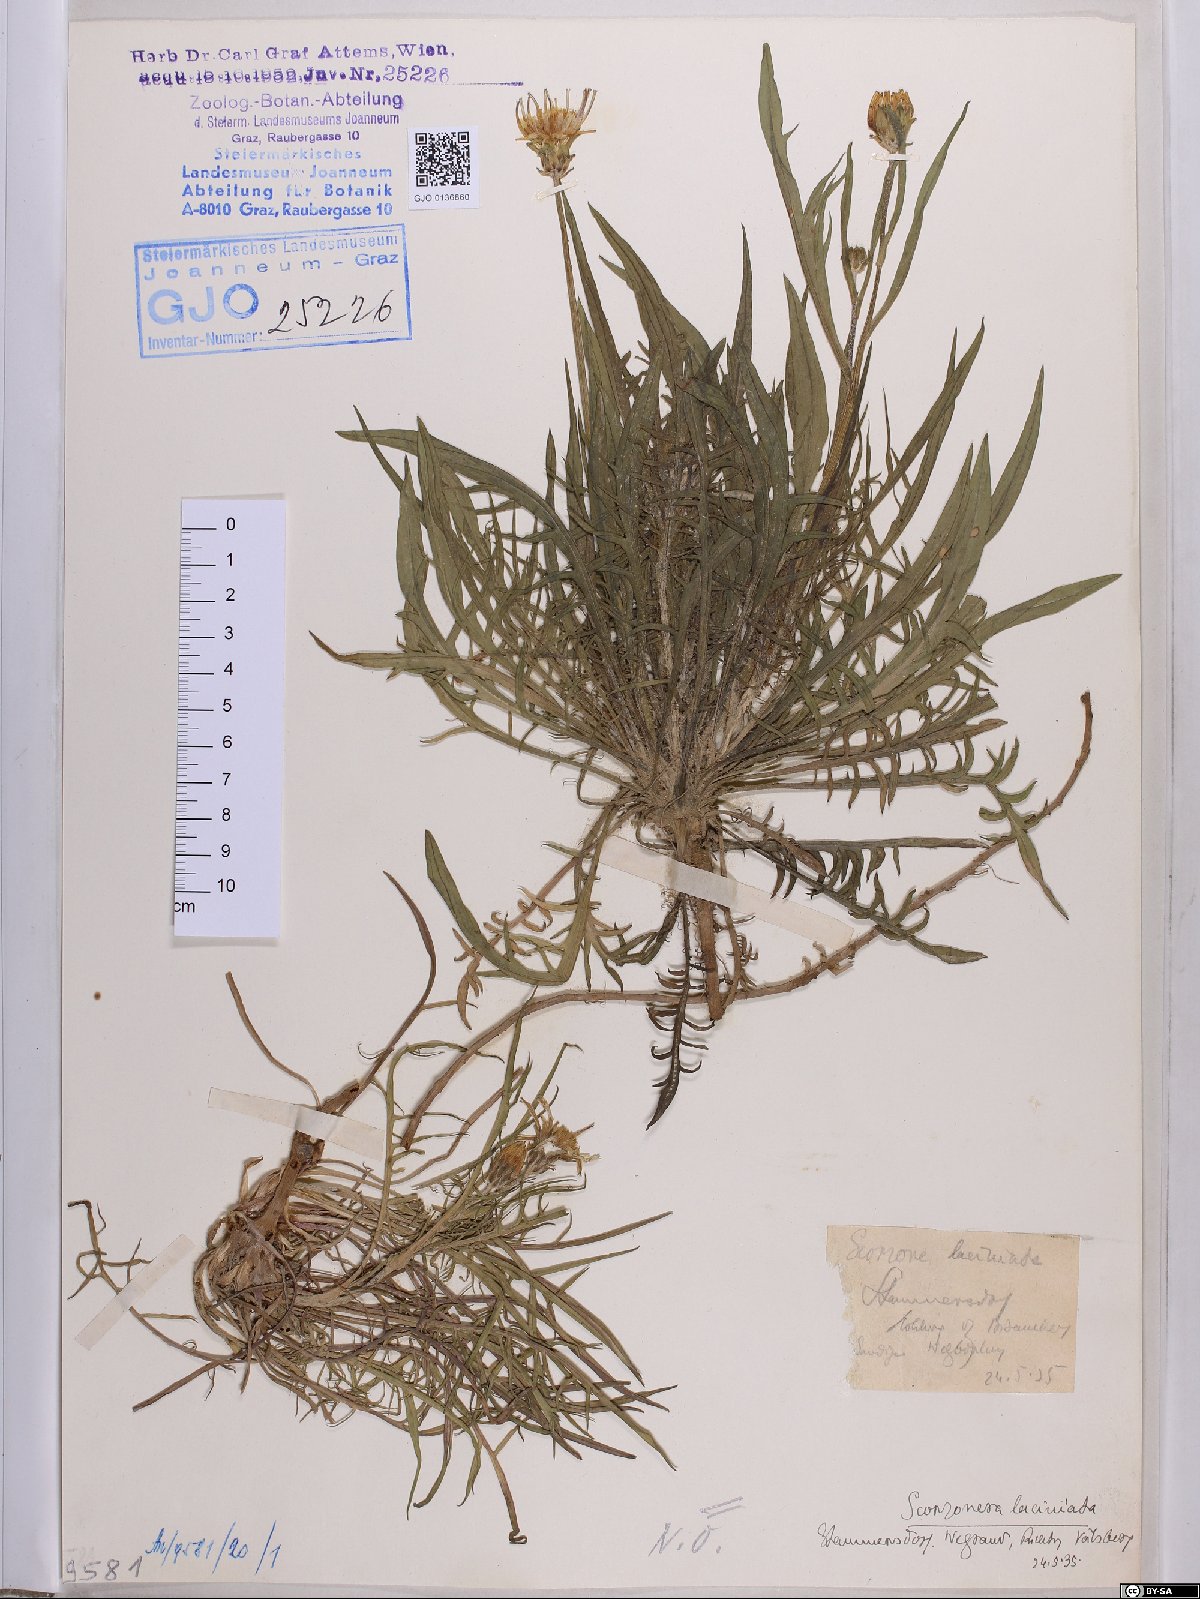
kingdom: Plantae
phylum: Tracheophyta
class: Magnoliopsida
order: Asterales
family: Asteraceae
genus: Scorzonera
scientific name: Scorzonera laciniata
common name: Cutleaf vipergrass
